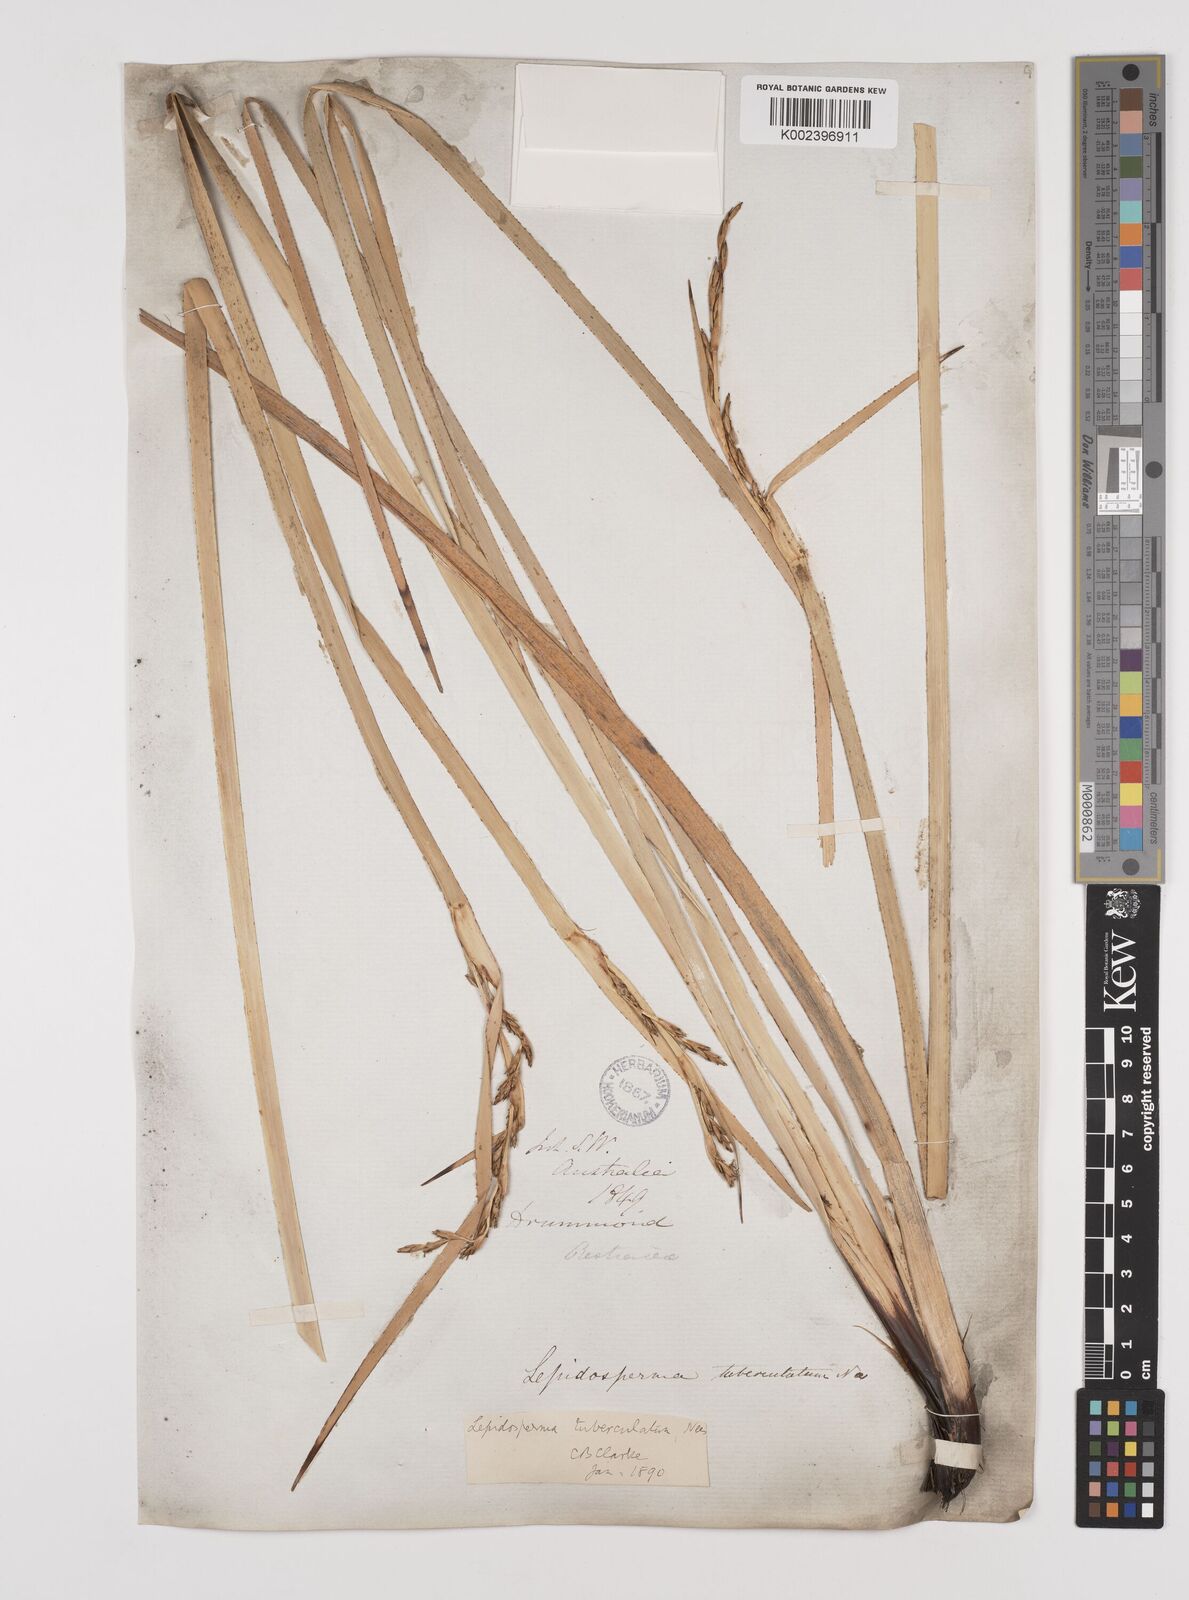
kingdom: Plantae
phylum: Tracheophyta
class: Liliopsida
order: Poales
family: Cyperaceae
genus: Lepidosperma
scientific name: Lepidosperma tuberculatum
